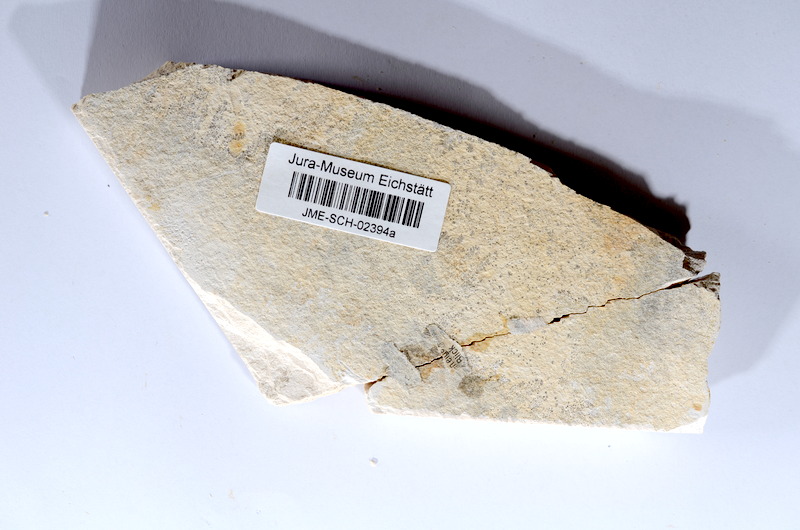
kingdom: Animalia
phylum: Chordata
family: Allothrissopidae
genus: Allothrissops
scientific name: Allothrissops
